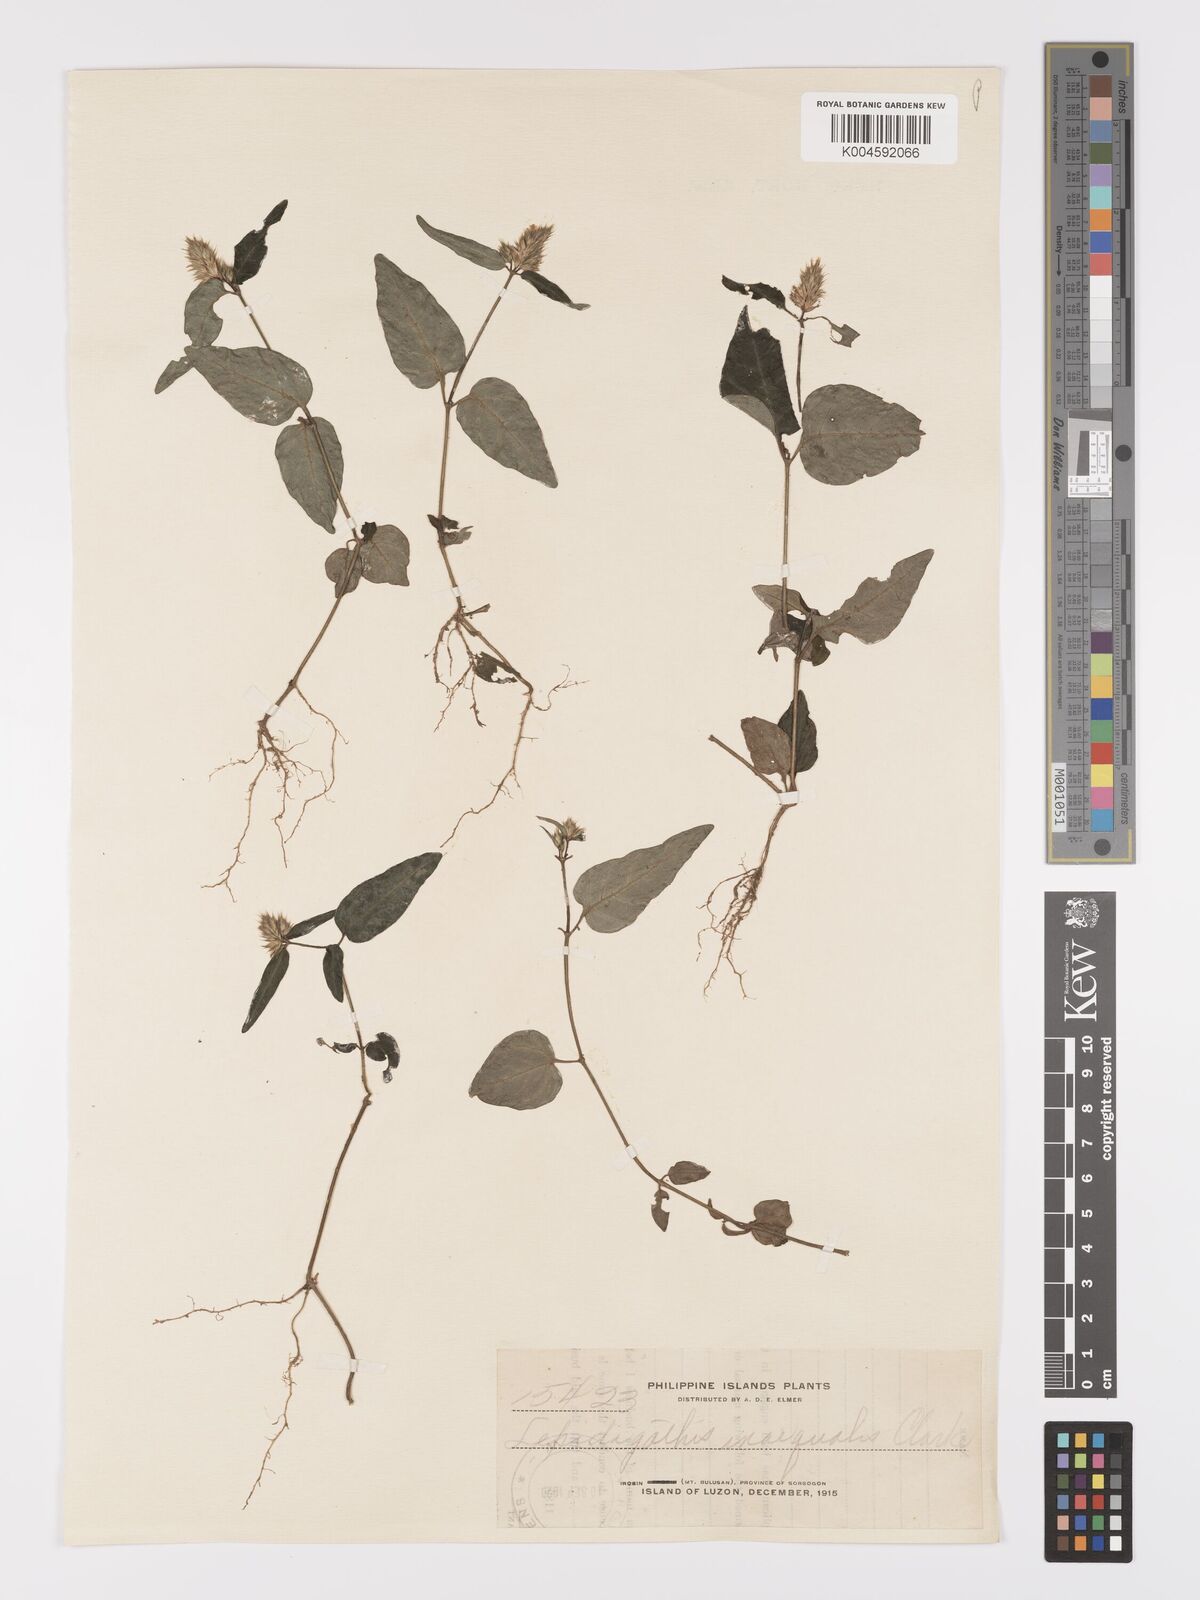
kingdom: Plantae
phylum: Tracheophyta
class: Magnoliopsida
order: Lamiales
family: Acanthaceae
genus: Lepidagathis
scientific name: Lepidagathis inaequalis
